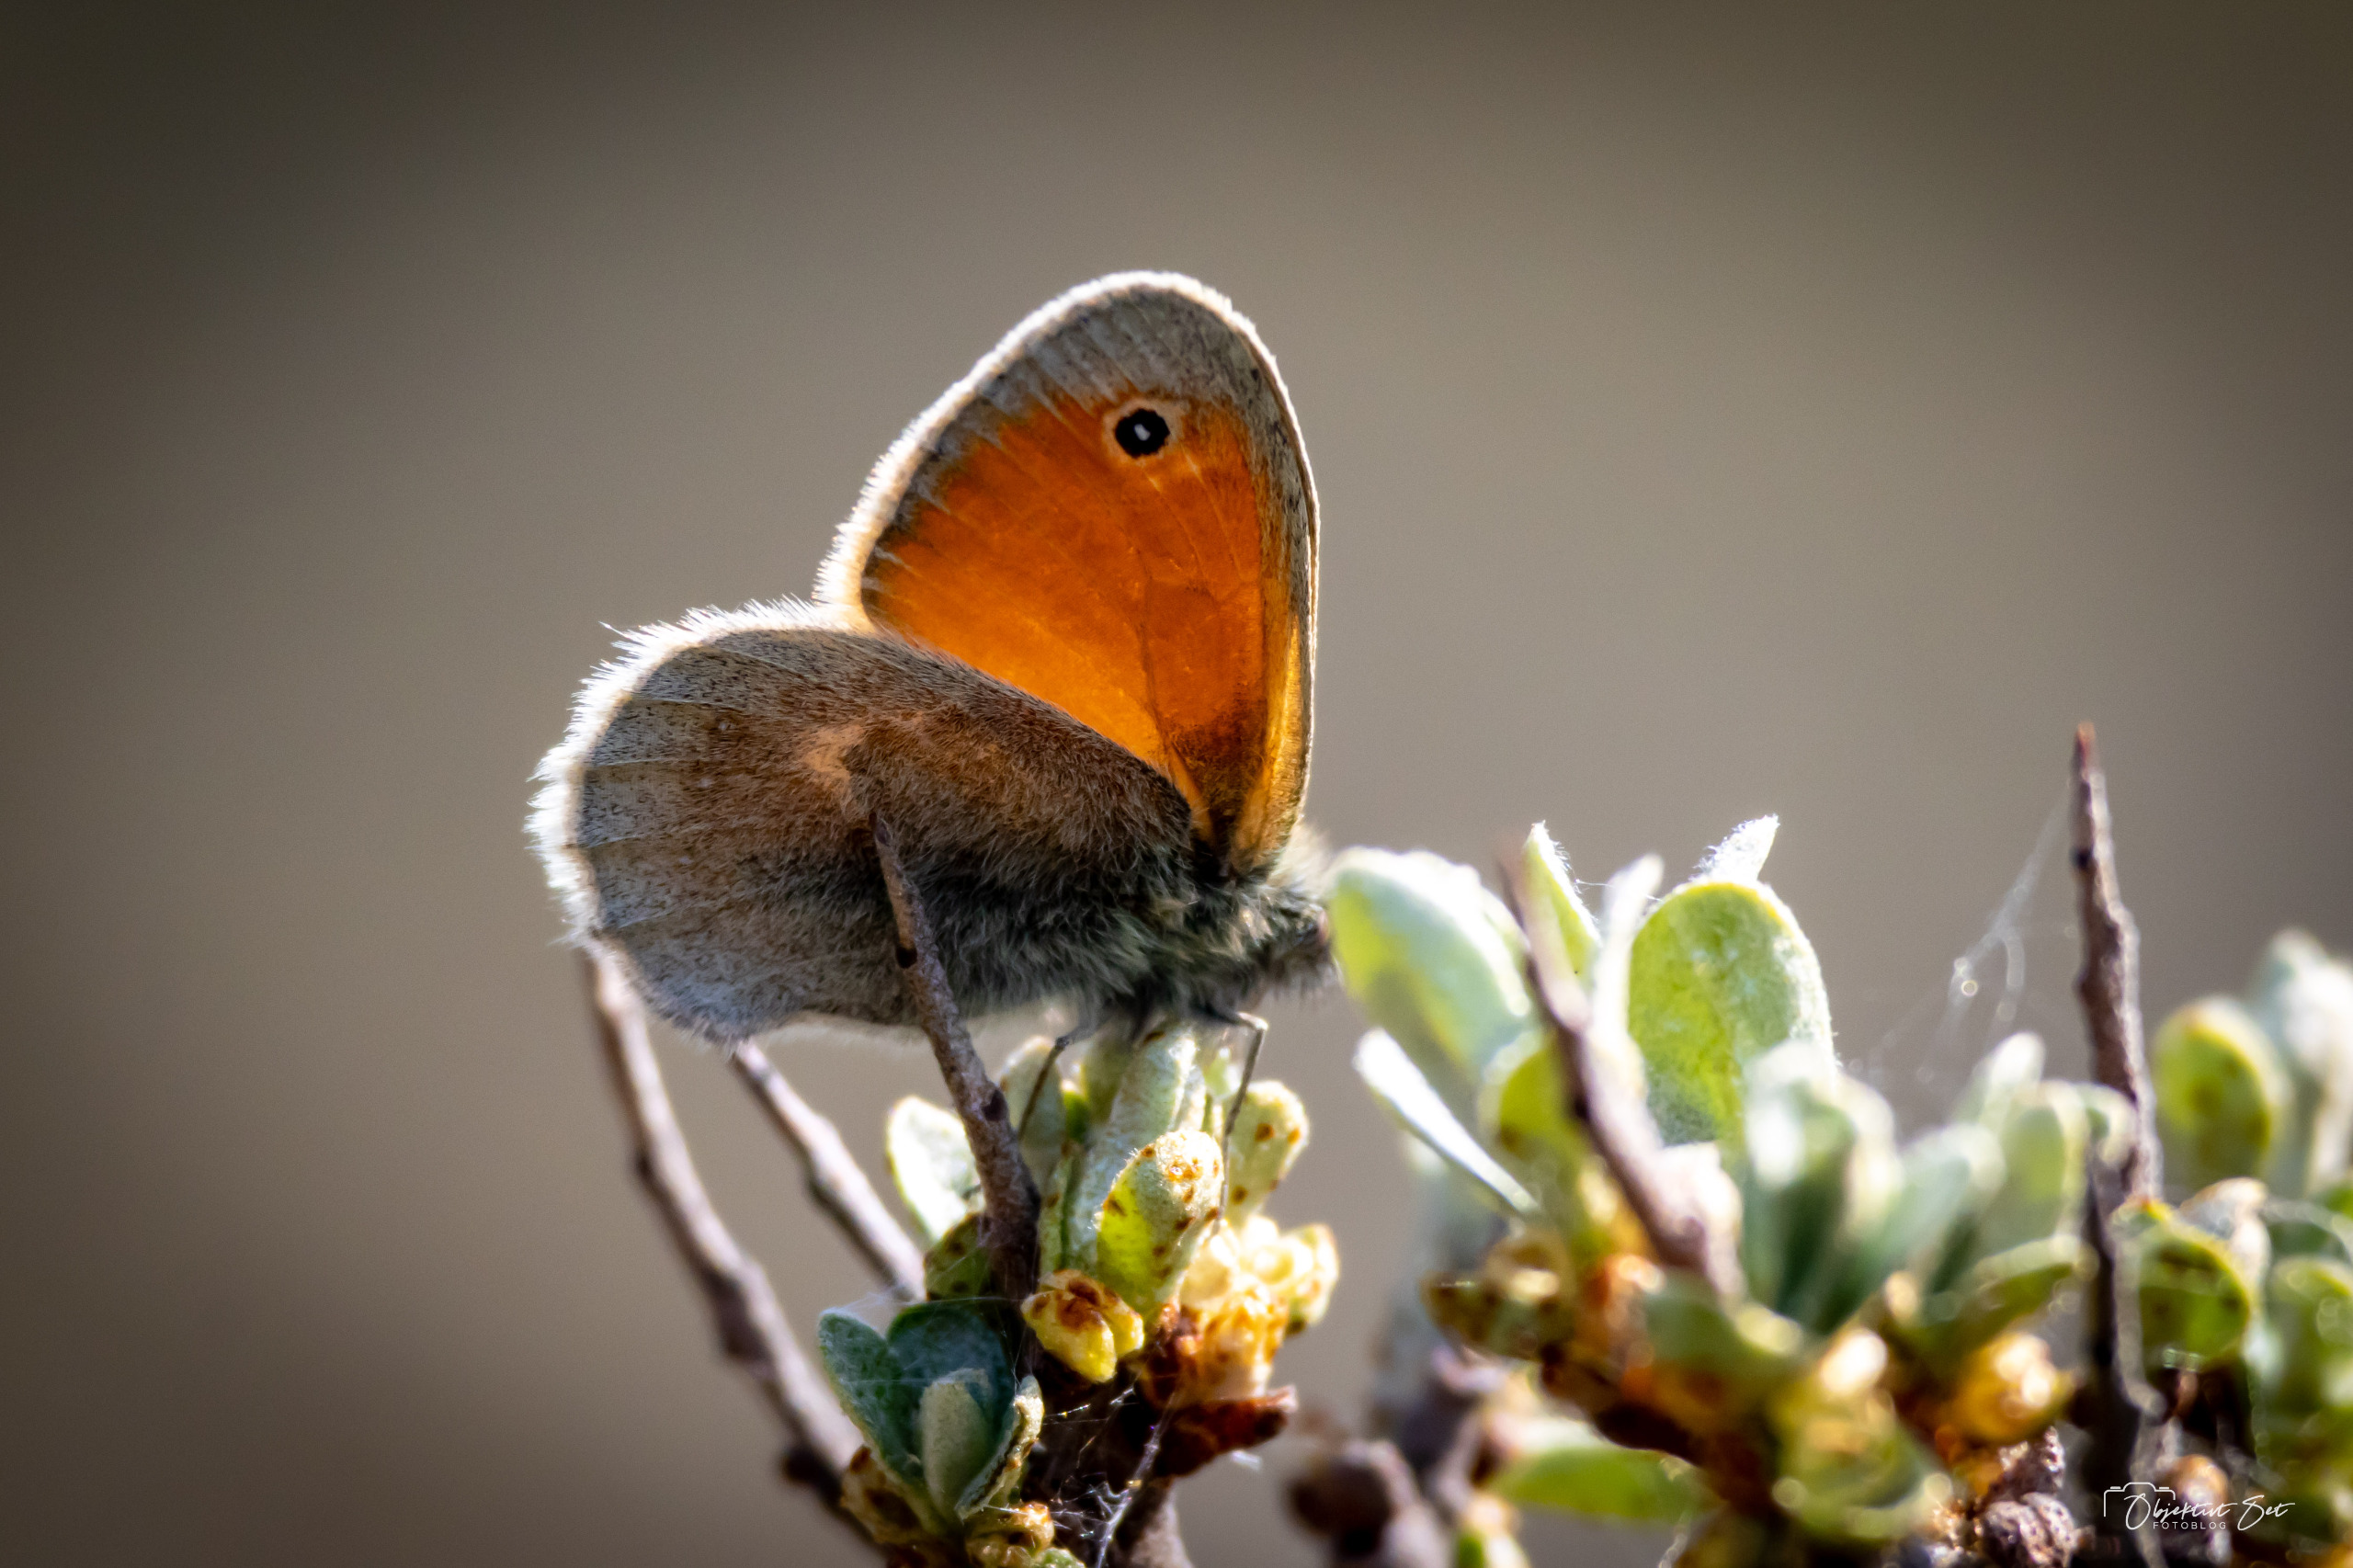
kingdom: Animalia
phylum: Arthropoda
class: Insecta
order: Lepidoptera
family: Nymphalidae
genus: Coenonympha
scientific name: Coenonympha pamphilus
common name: Okkergul randøje
